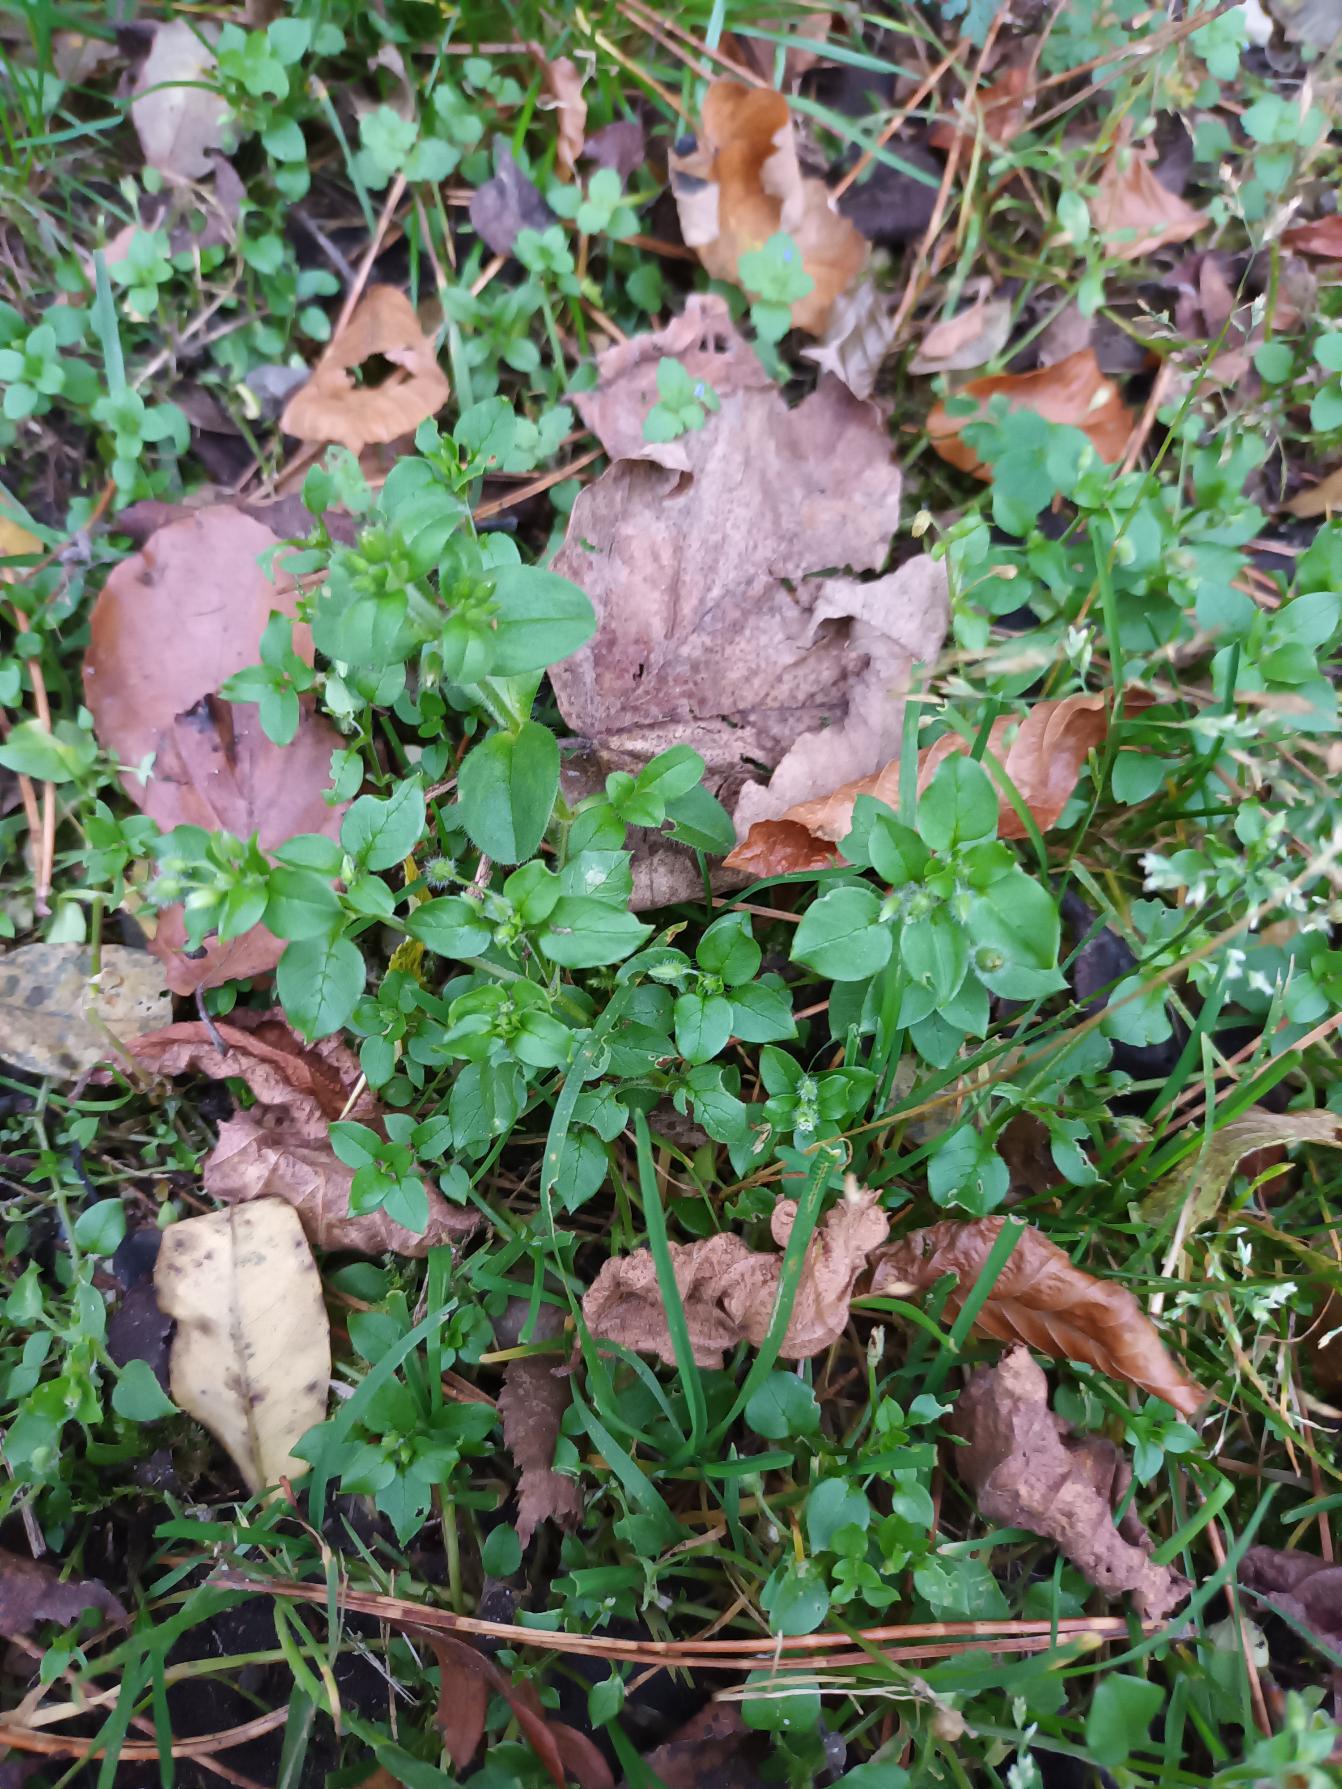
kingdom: Plantae
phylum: Tracheophyta
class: Magnoliopsida
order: Caryophyllales
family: Caryophyllaceae
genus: Stellaria
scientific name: Stellaria media
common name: Almindelig fuglegræs
